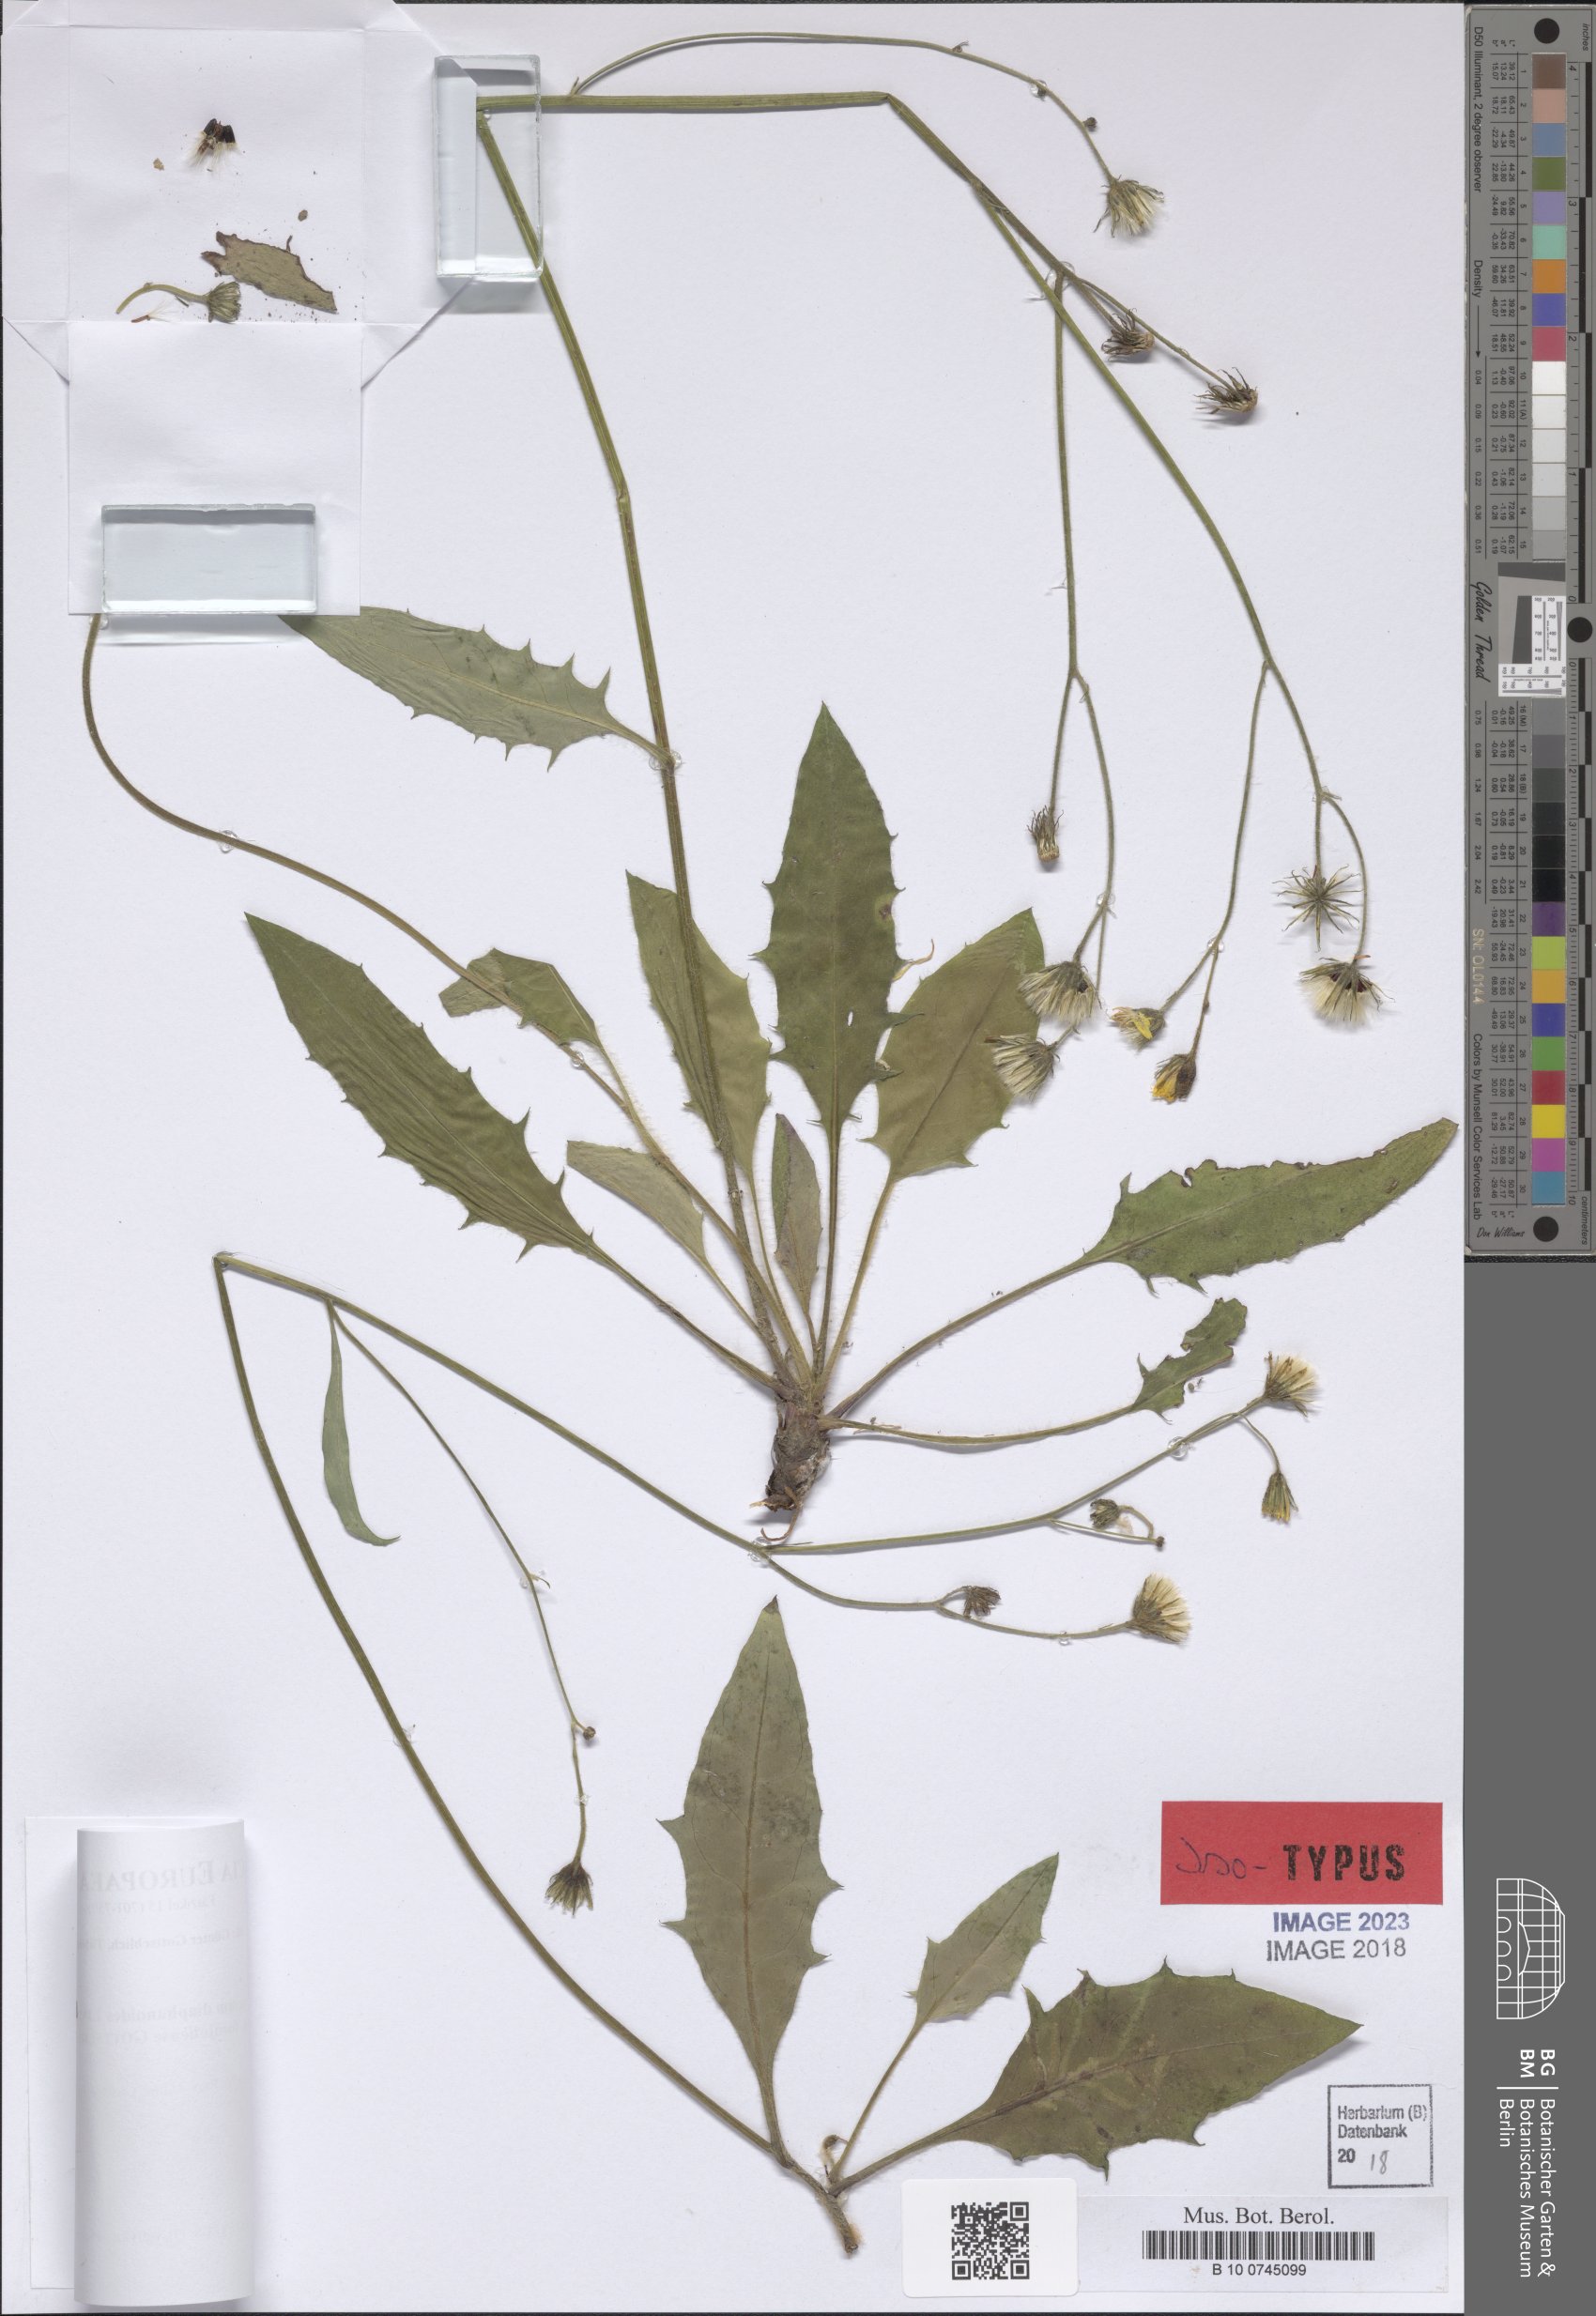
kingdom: Plantae
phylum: Tracheophyta
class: Magnoliopsida
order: Asterales
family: Asteraceae
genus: Hieracium
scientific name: Hieracium diaphanoides
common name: Fine-bracted hawkweed
